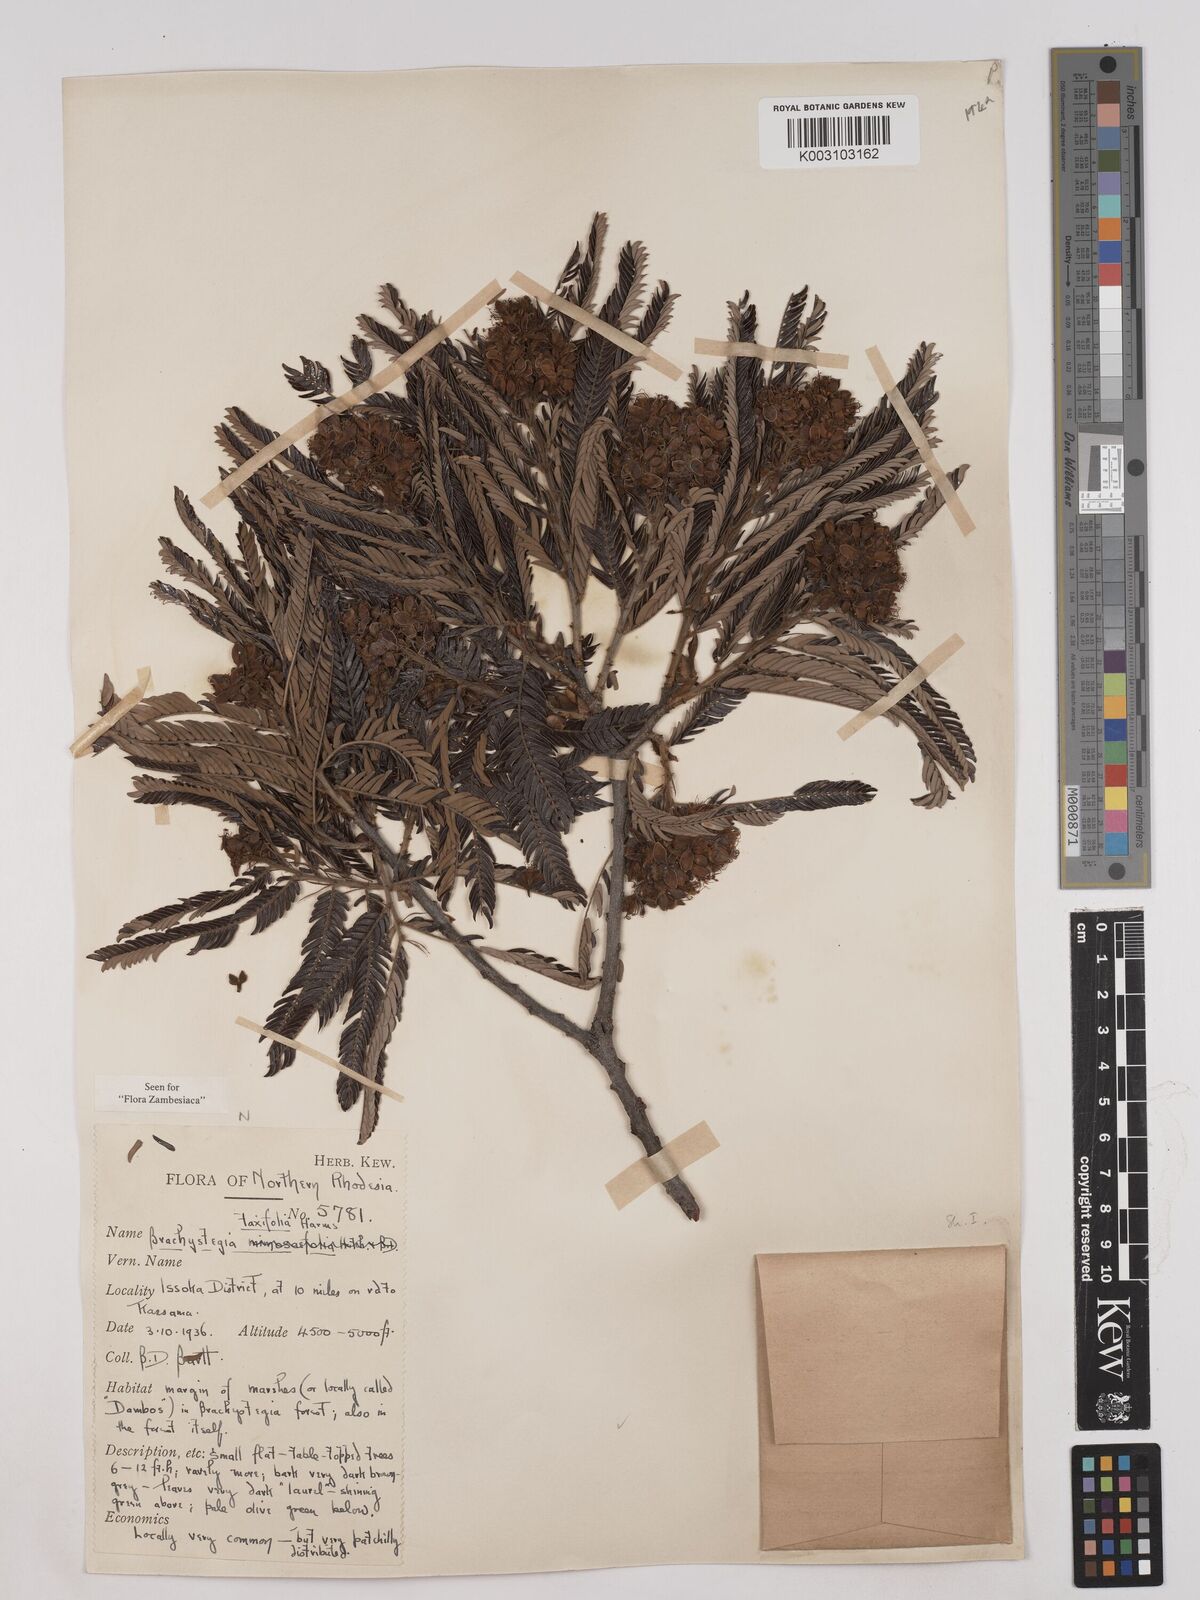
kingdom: Plantae
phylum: Tracheophyta
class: Magnoliopsida
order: Fabales
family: Fabaceae
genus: Brachystegia
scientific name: Brachystegia taxifolia
